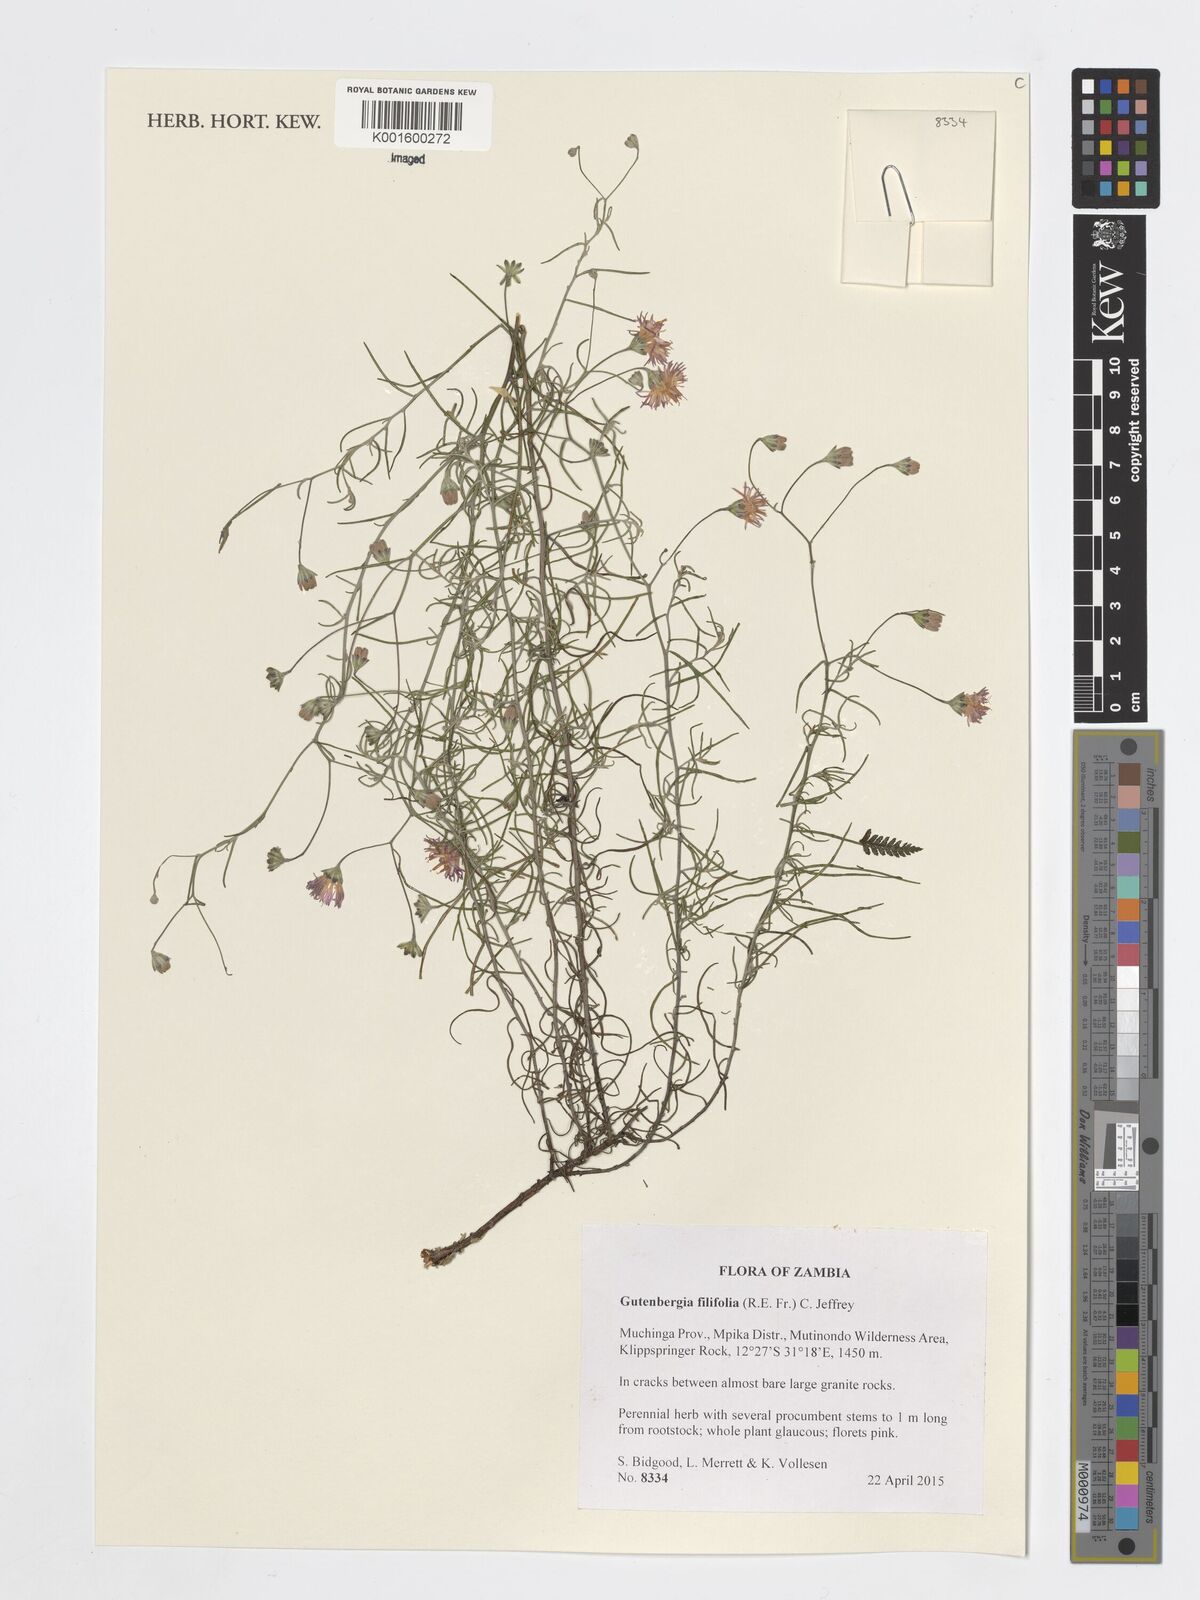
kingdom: Plantae
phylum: Tracheophyta
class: Magnoliopsida
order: Asterales
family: Asteraceae
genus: Paurolepis
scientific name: Paurolepis filifolia
